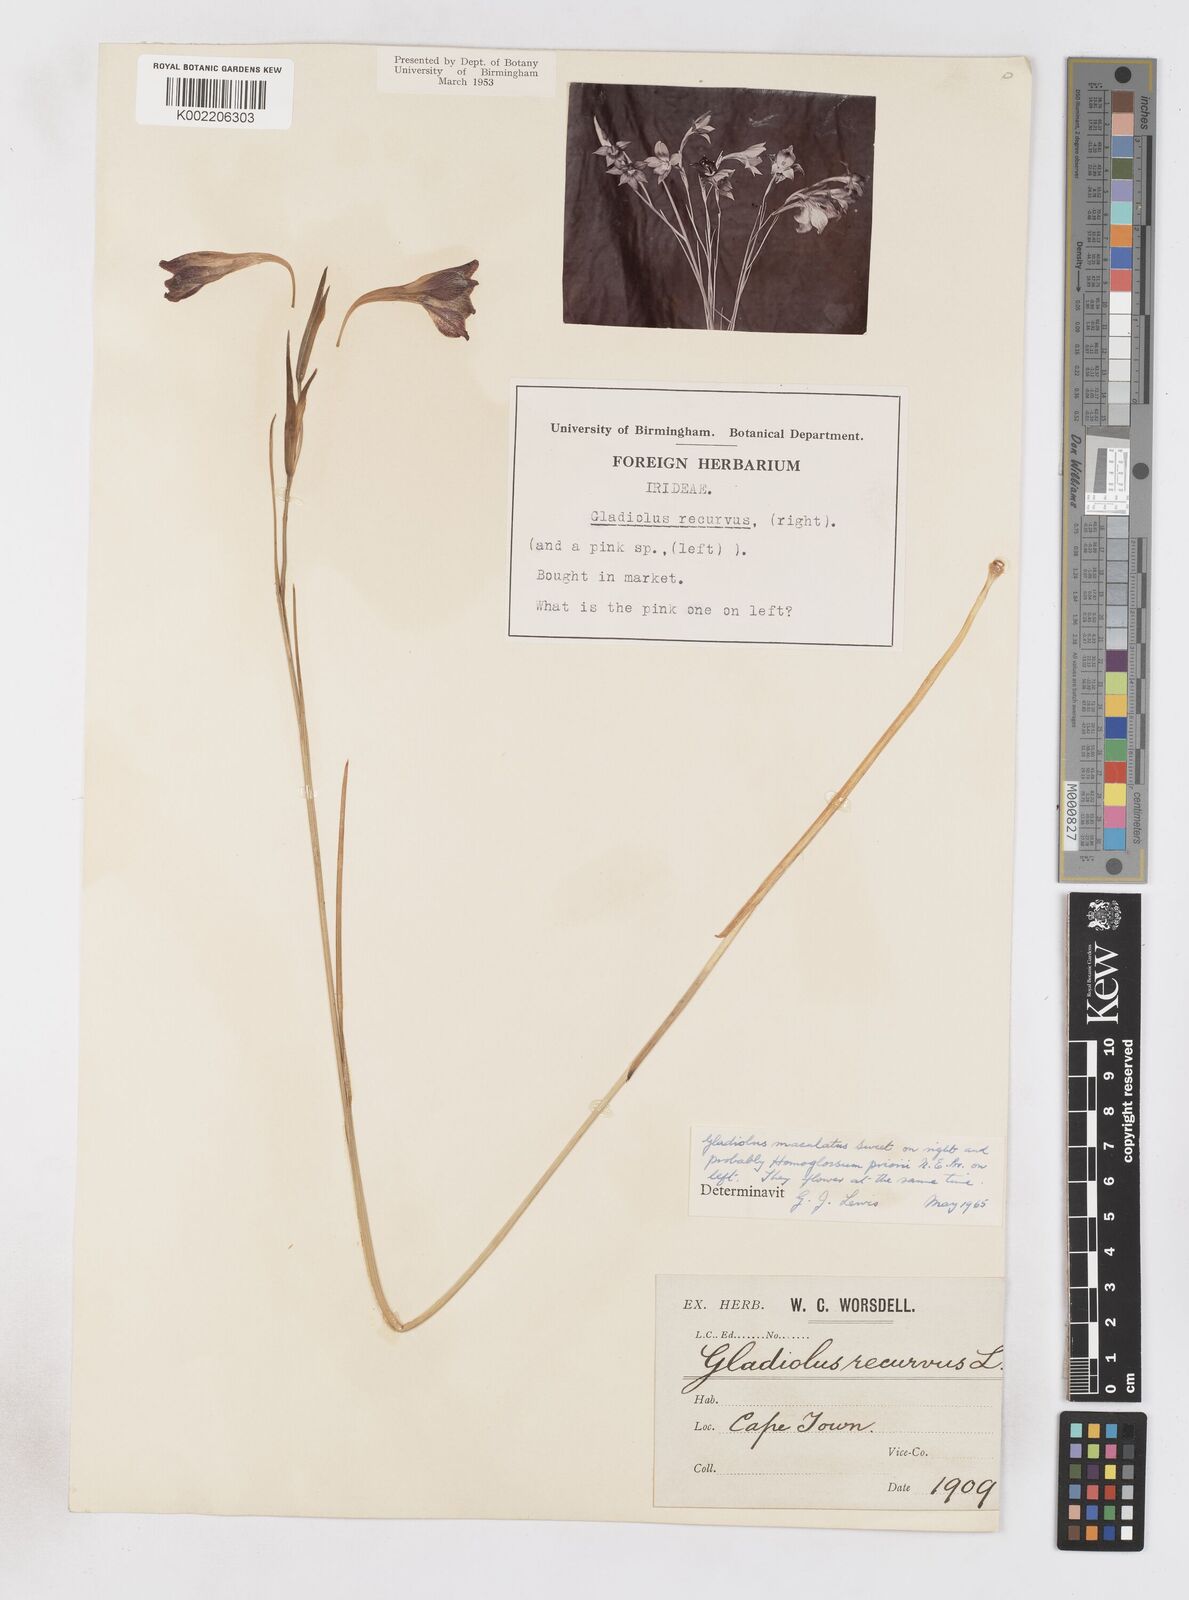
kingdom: Plantae
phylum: Tracheophyta
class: Liliopsida
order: Asparagales
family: Iridaceae
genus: Gladiolus
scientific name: Gladiolus maculatus
